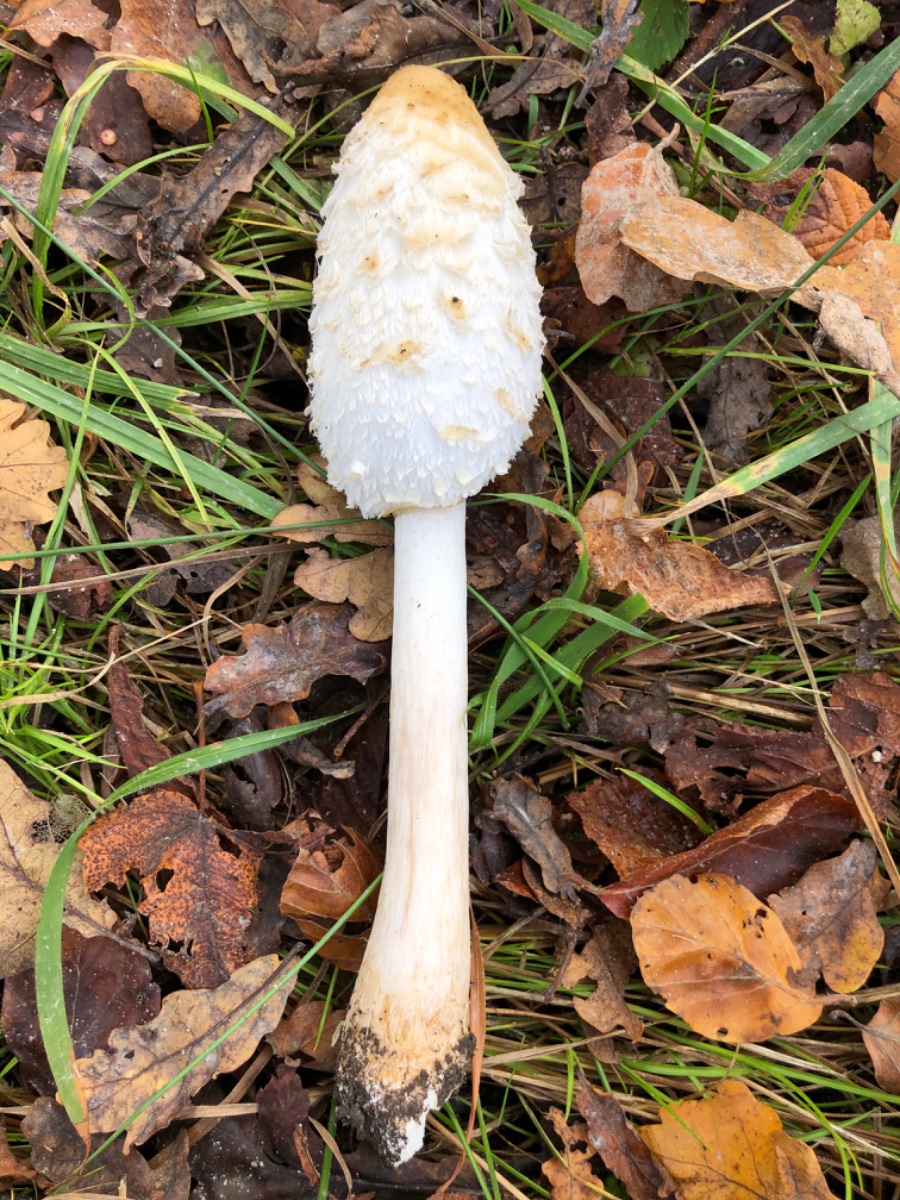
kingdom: Fungi
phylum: Basidiomycota
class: Agaricomycetes
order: Agaricales
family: Agaricaceae
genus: Coprinus
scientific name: Coprinus comatus
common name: stor parykhat
